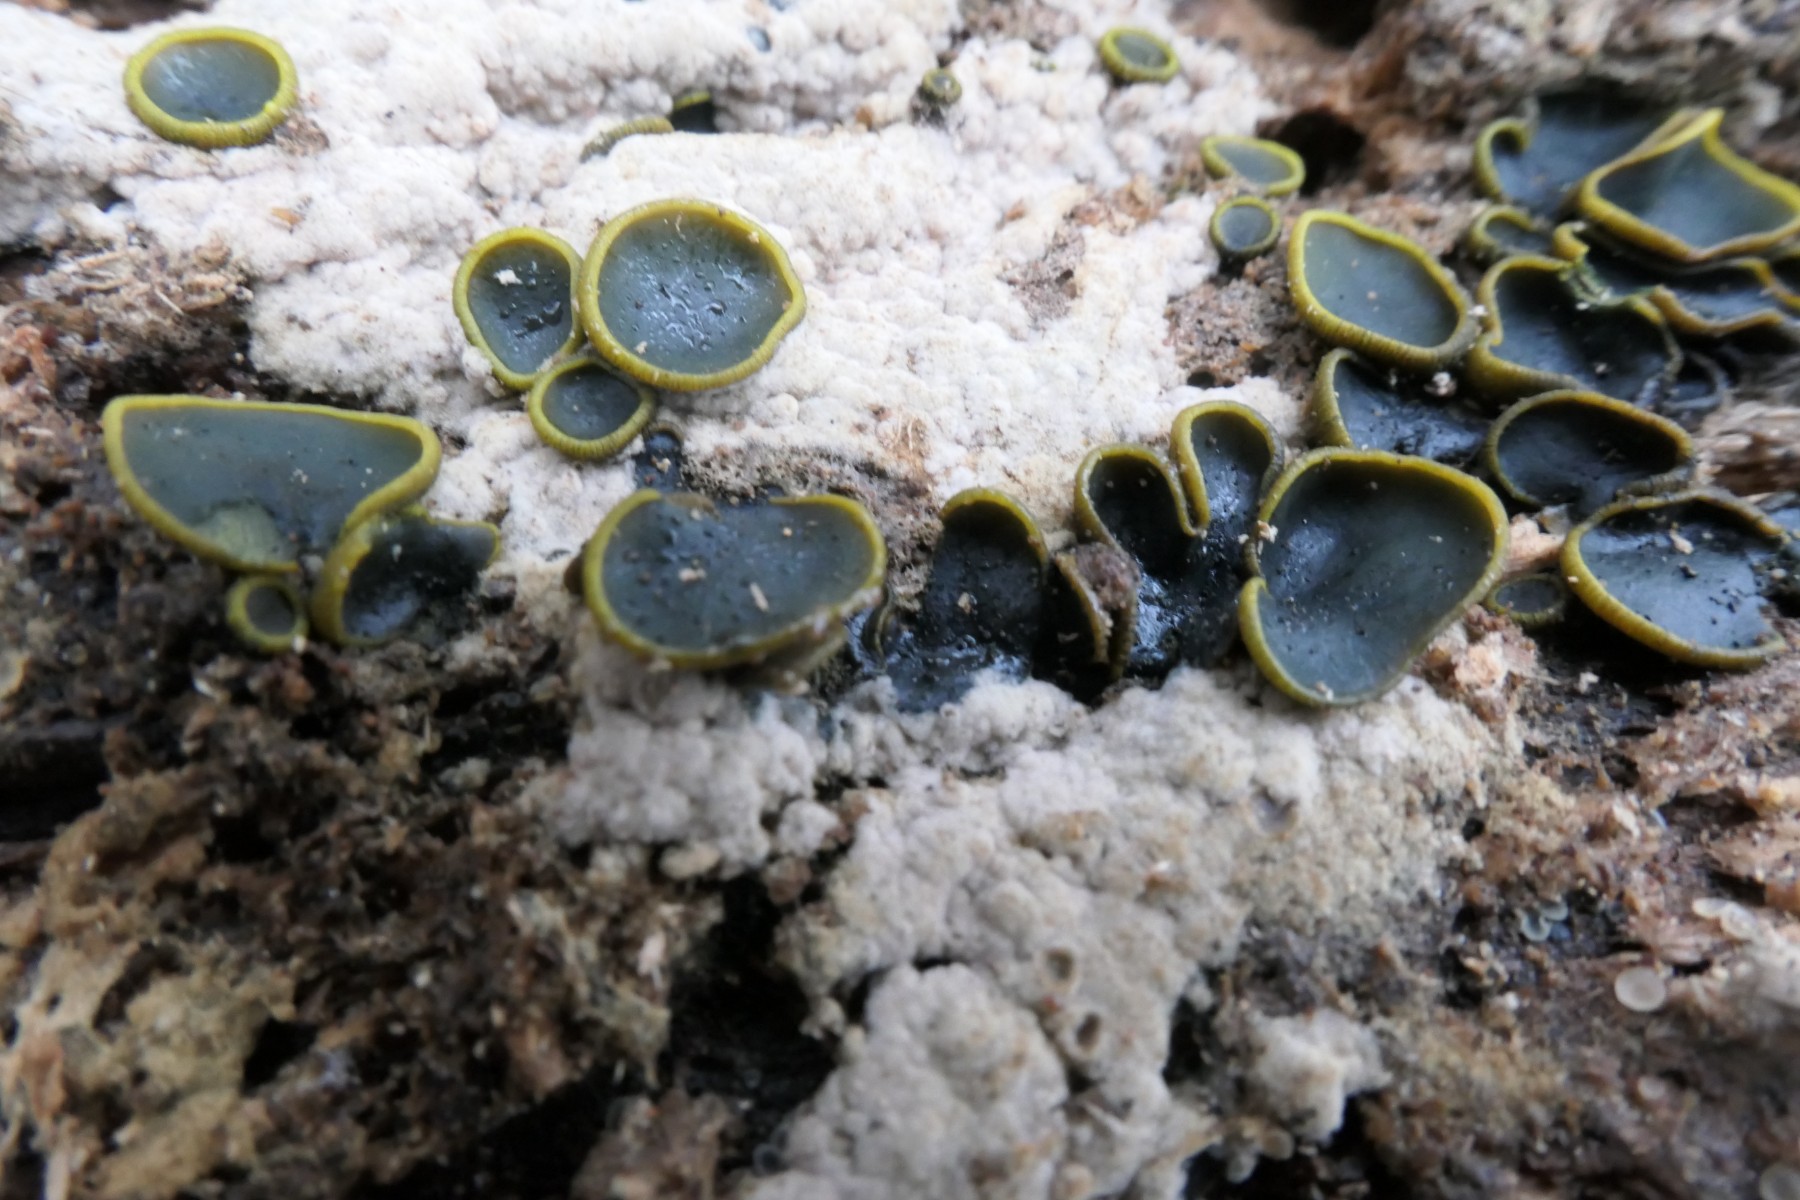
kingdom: Fungi
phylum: Ascomycota
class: Dothideomycetes
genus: Catinella
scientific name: Catinella olivacea
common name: olivenskive
